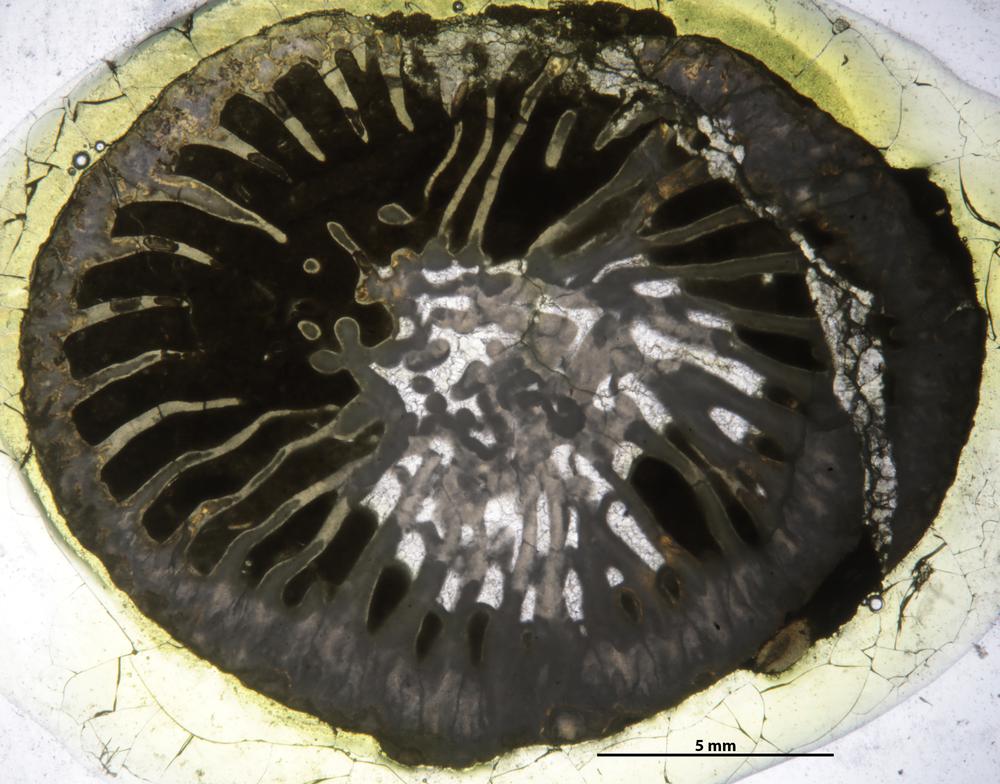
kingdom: Animalia
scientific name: Animalia
